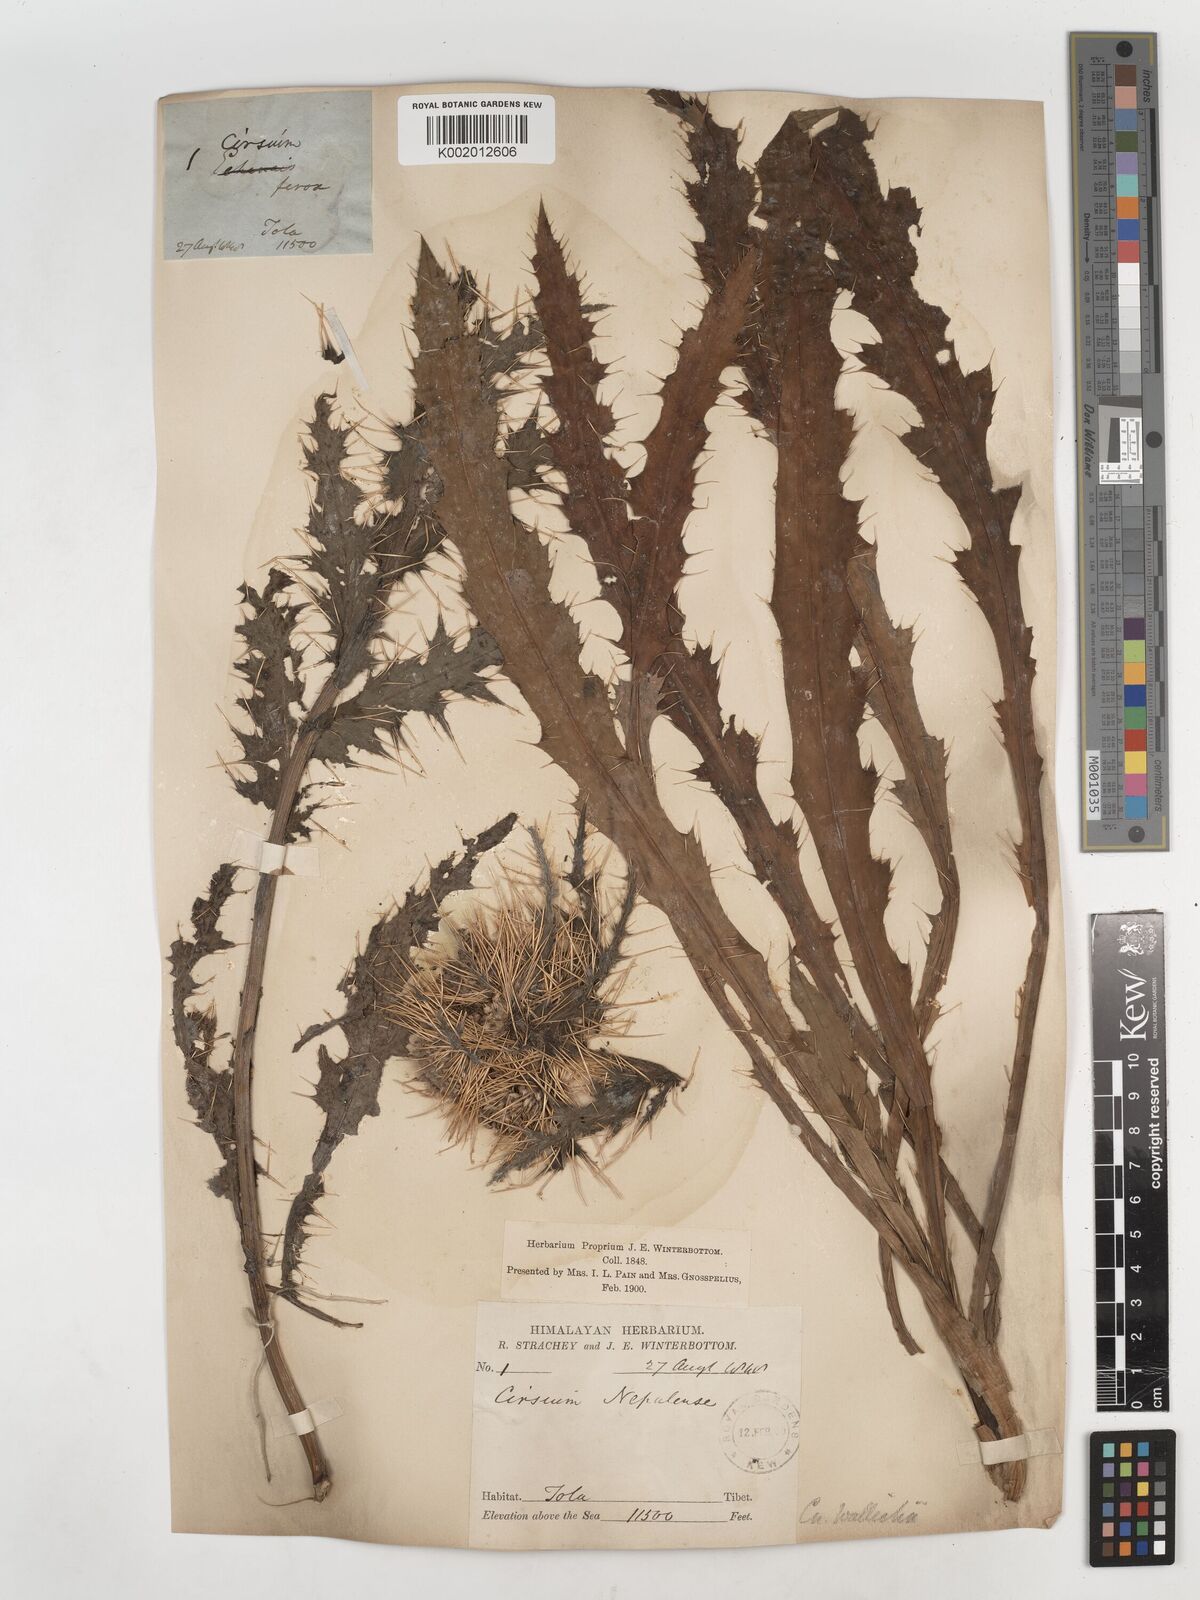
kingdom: Plantae
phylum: Tracheophyta
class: Magnoliopsida
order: Asterales
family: Asteraceae
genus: Cirsium
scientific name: Cirsium wallichii
